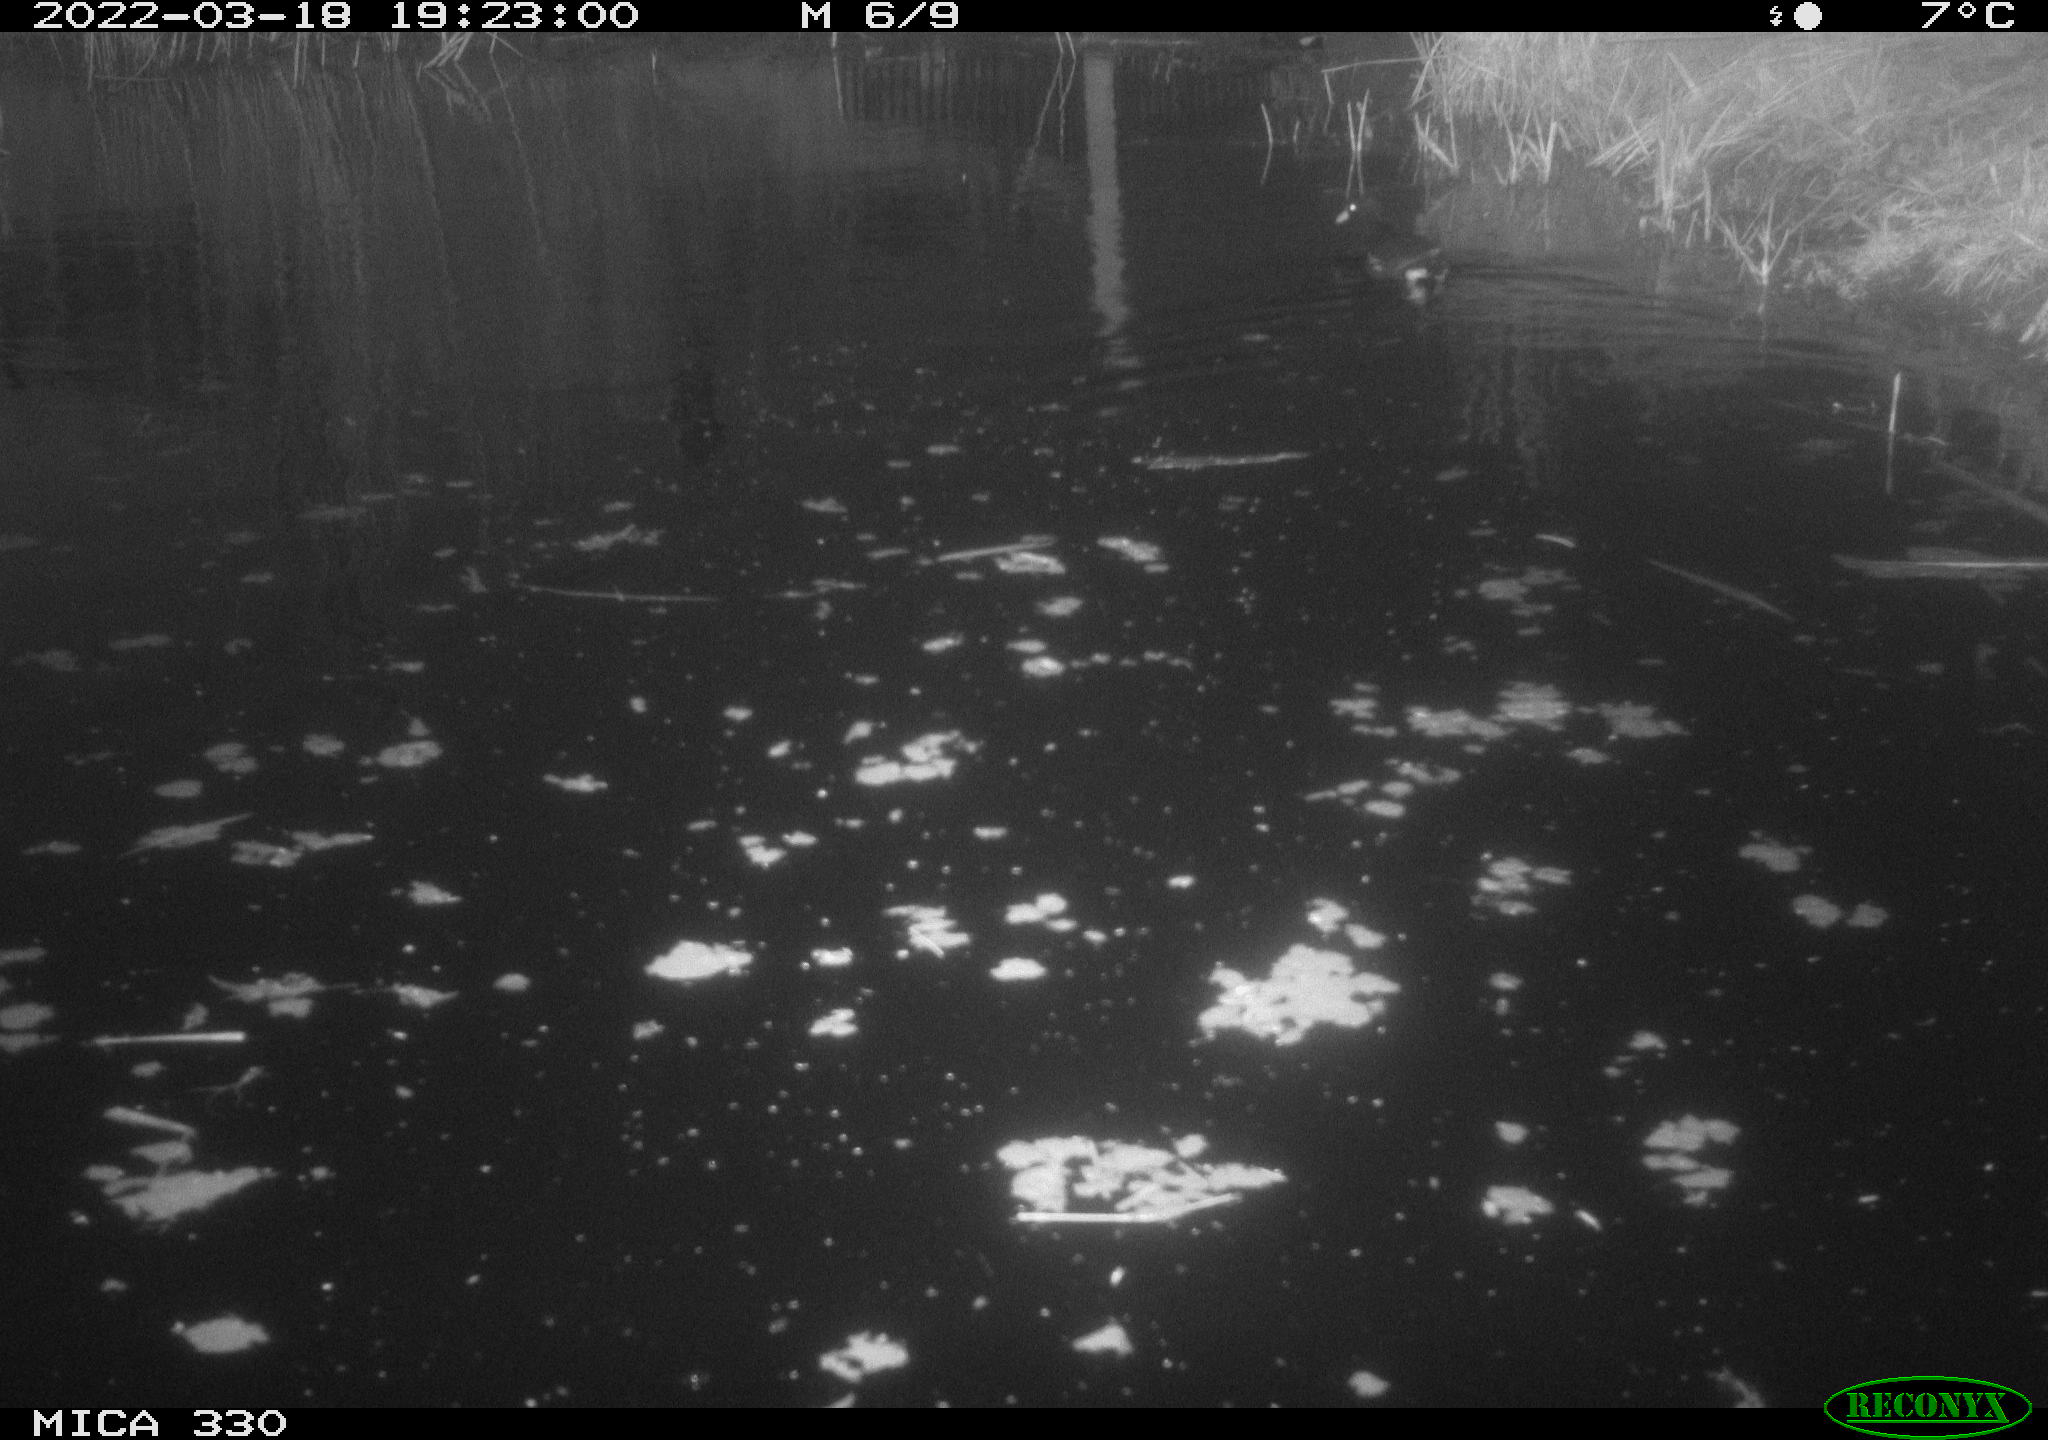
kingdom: Animalia
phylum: Chordata
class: Aves
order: Gruiformes
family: Rallidae
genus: Gallinula
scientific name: Gallinula chloropus
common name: Common moorhen
